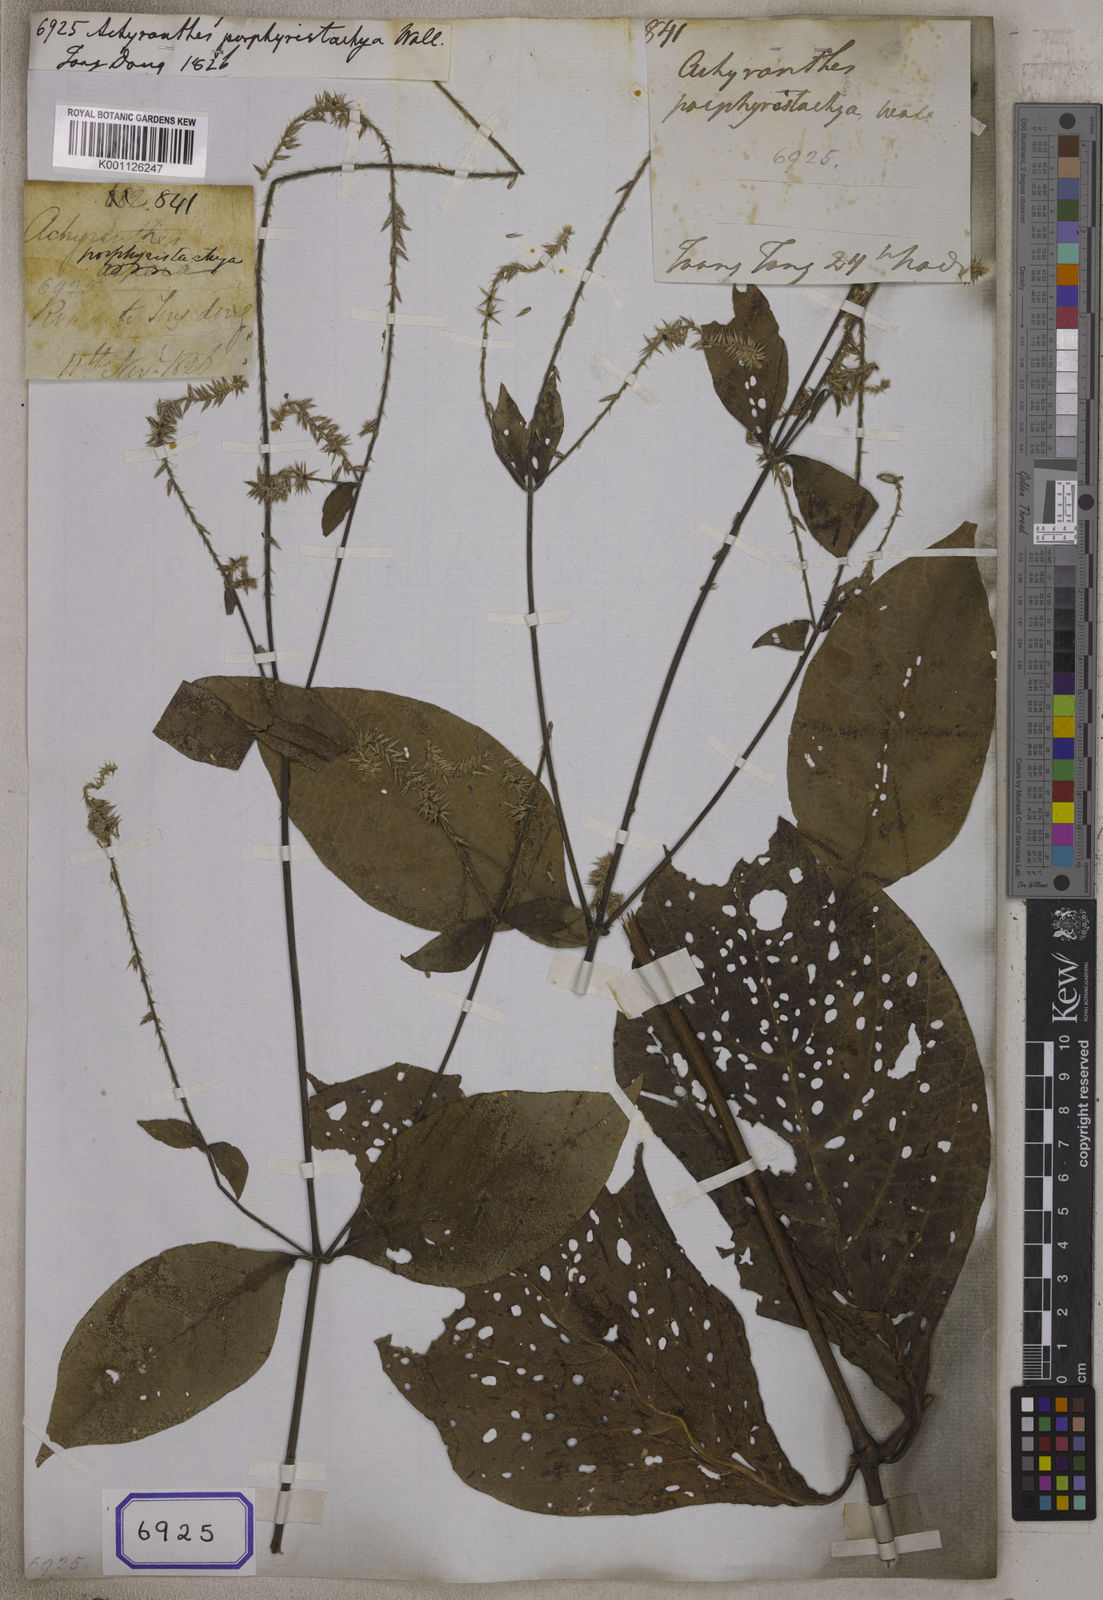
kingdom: Plantae
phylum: Tracheophyta
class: Magnoliopsida
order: Caryophyllales
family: Amaranthaceae
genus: Achyranthes
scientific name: Achyranthes
